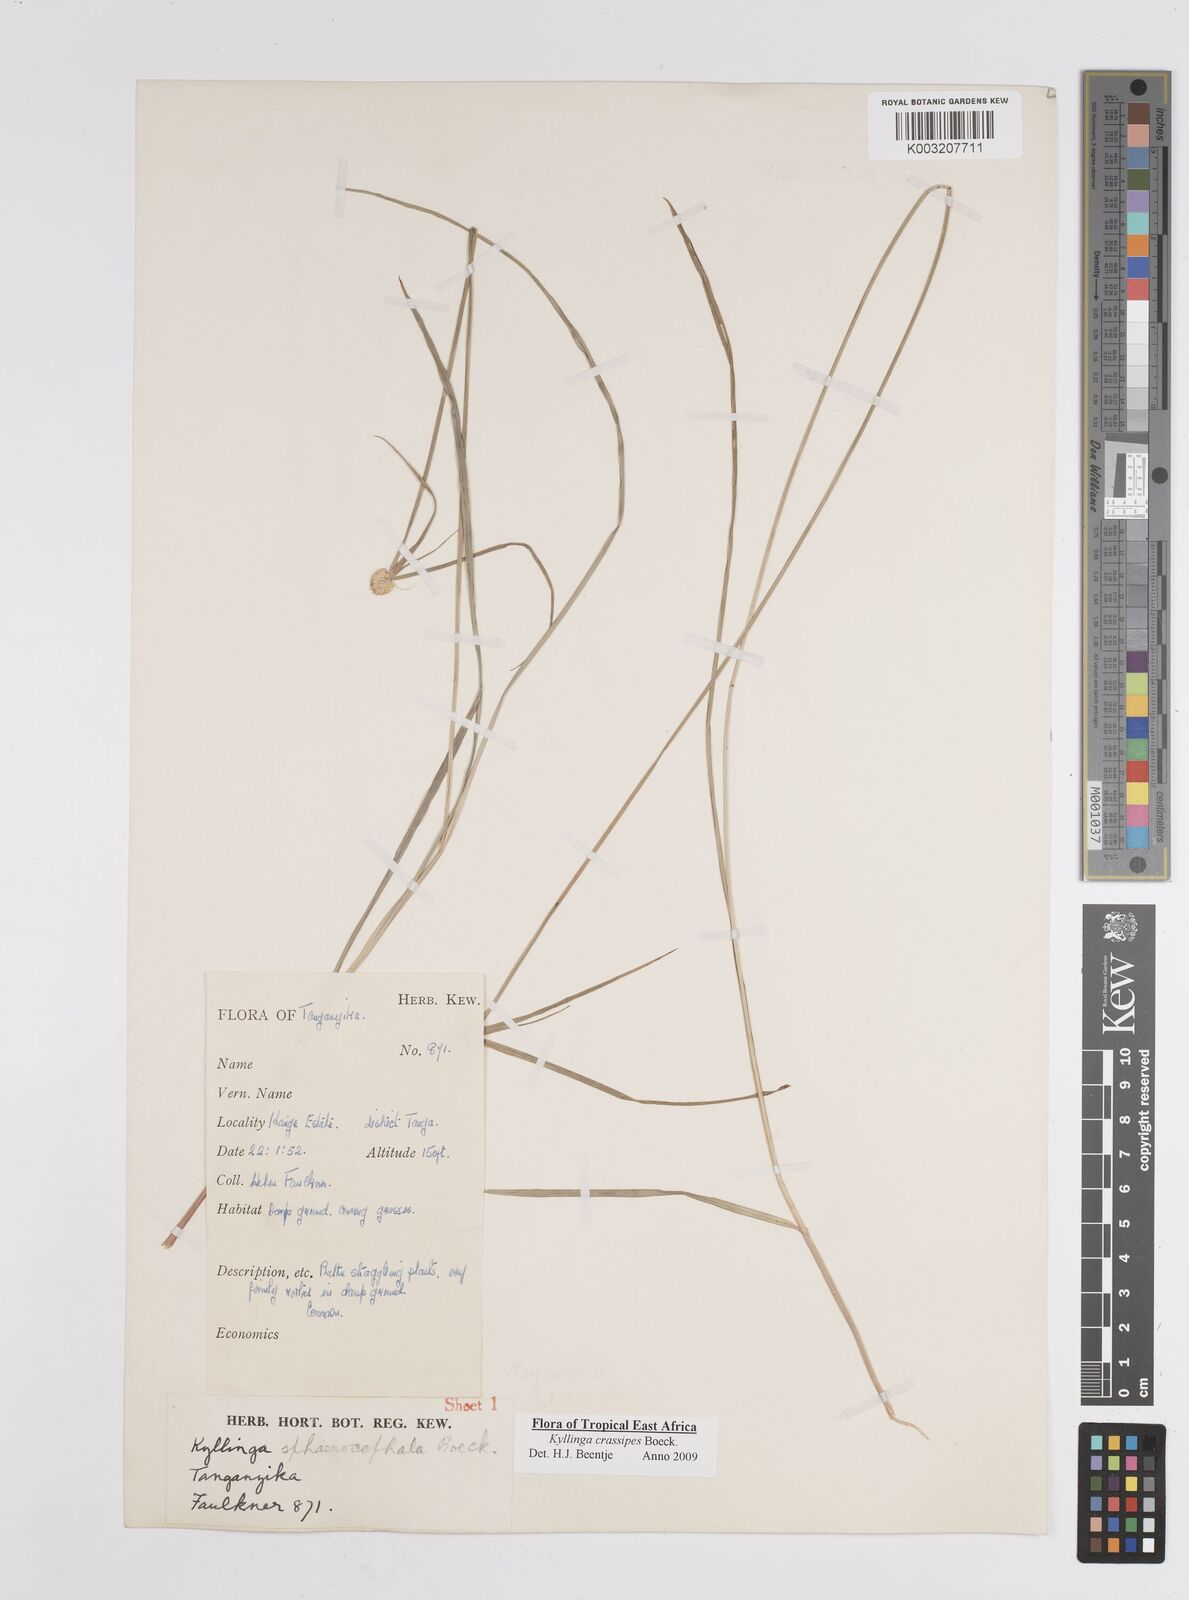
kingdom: Plantae
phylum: Tracheophyta
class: Liliopsida
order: Poales
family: Cyperaceae
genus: Cyperus
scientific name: Cyperus
